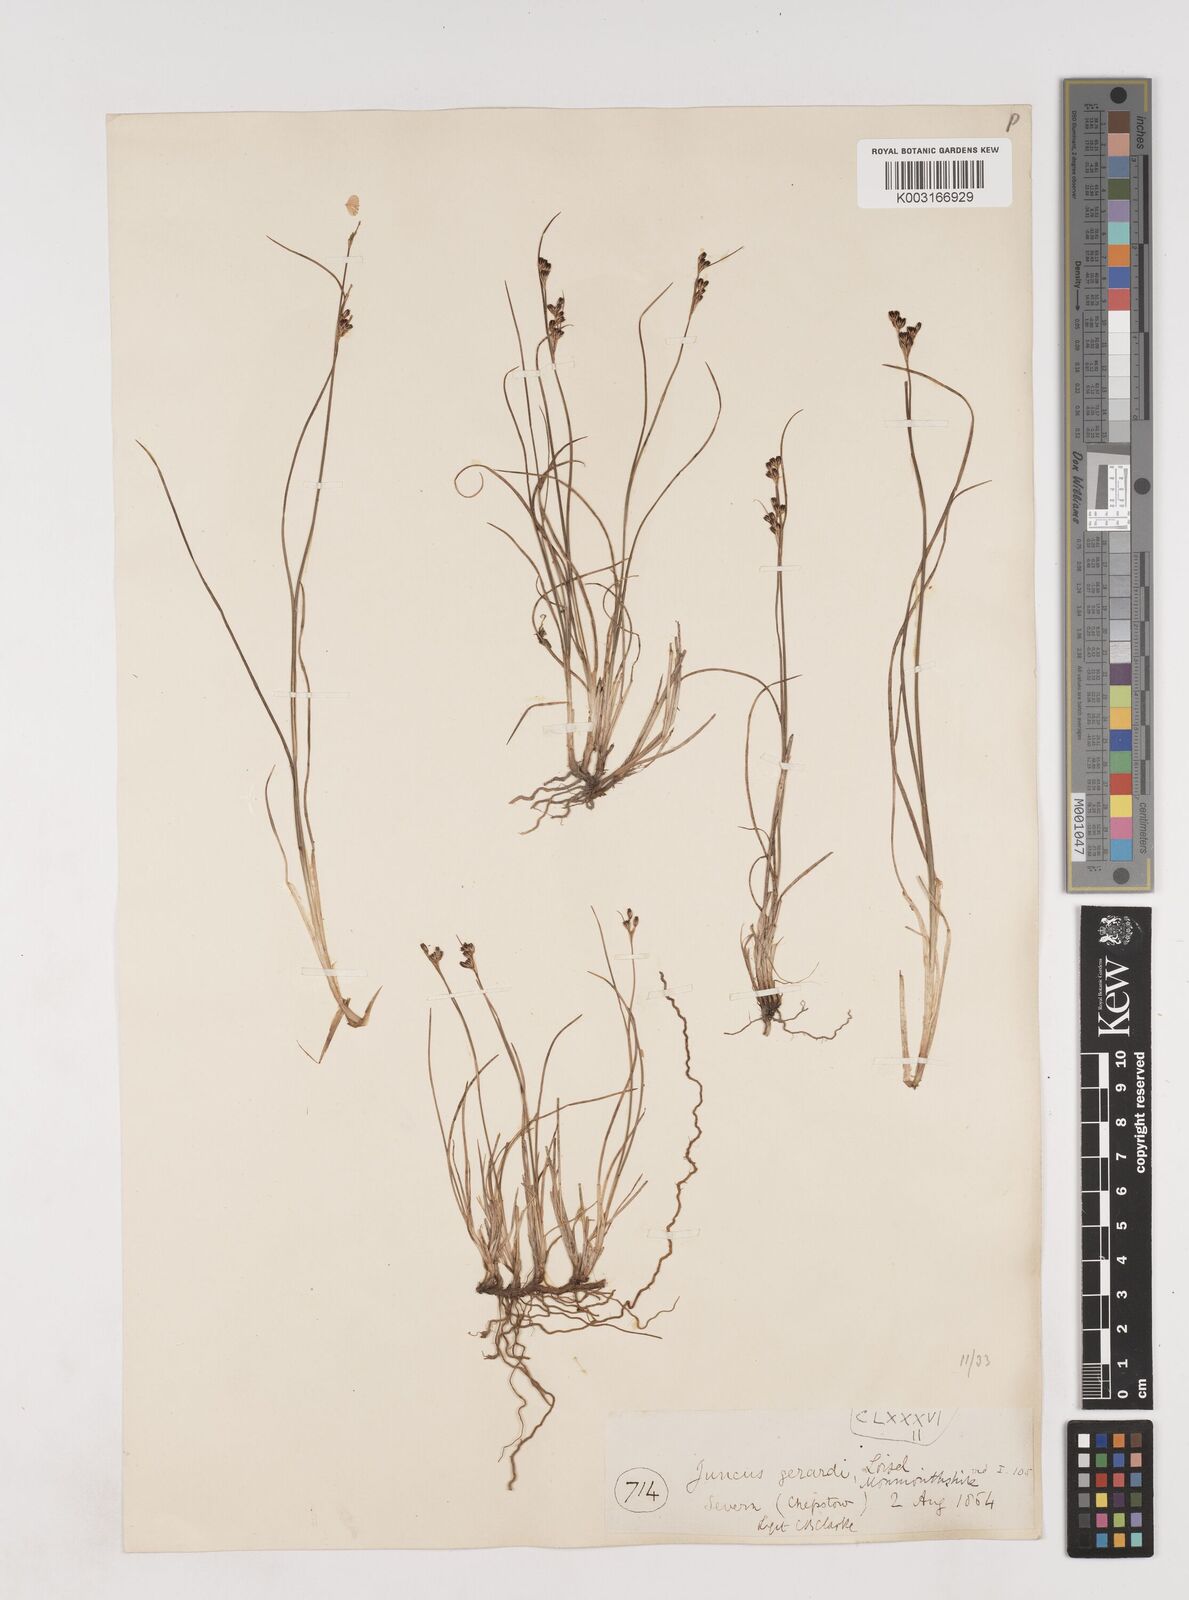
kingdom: Plantae
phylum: Tracheophyta
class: Liliopsida
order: Poales
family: Juncaceae
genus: Juncus
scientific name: Juncus gerardi
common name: Saltmarsh rush
